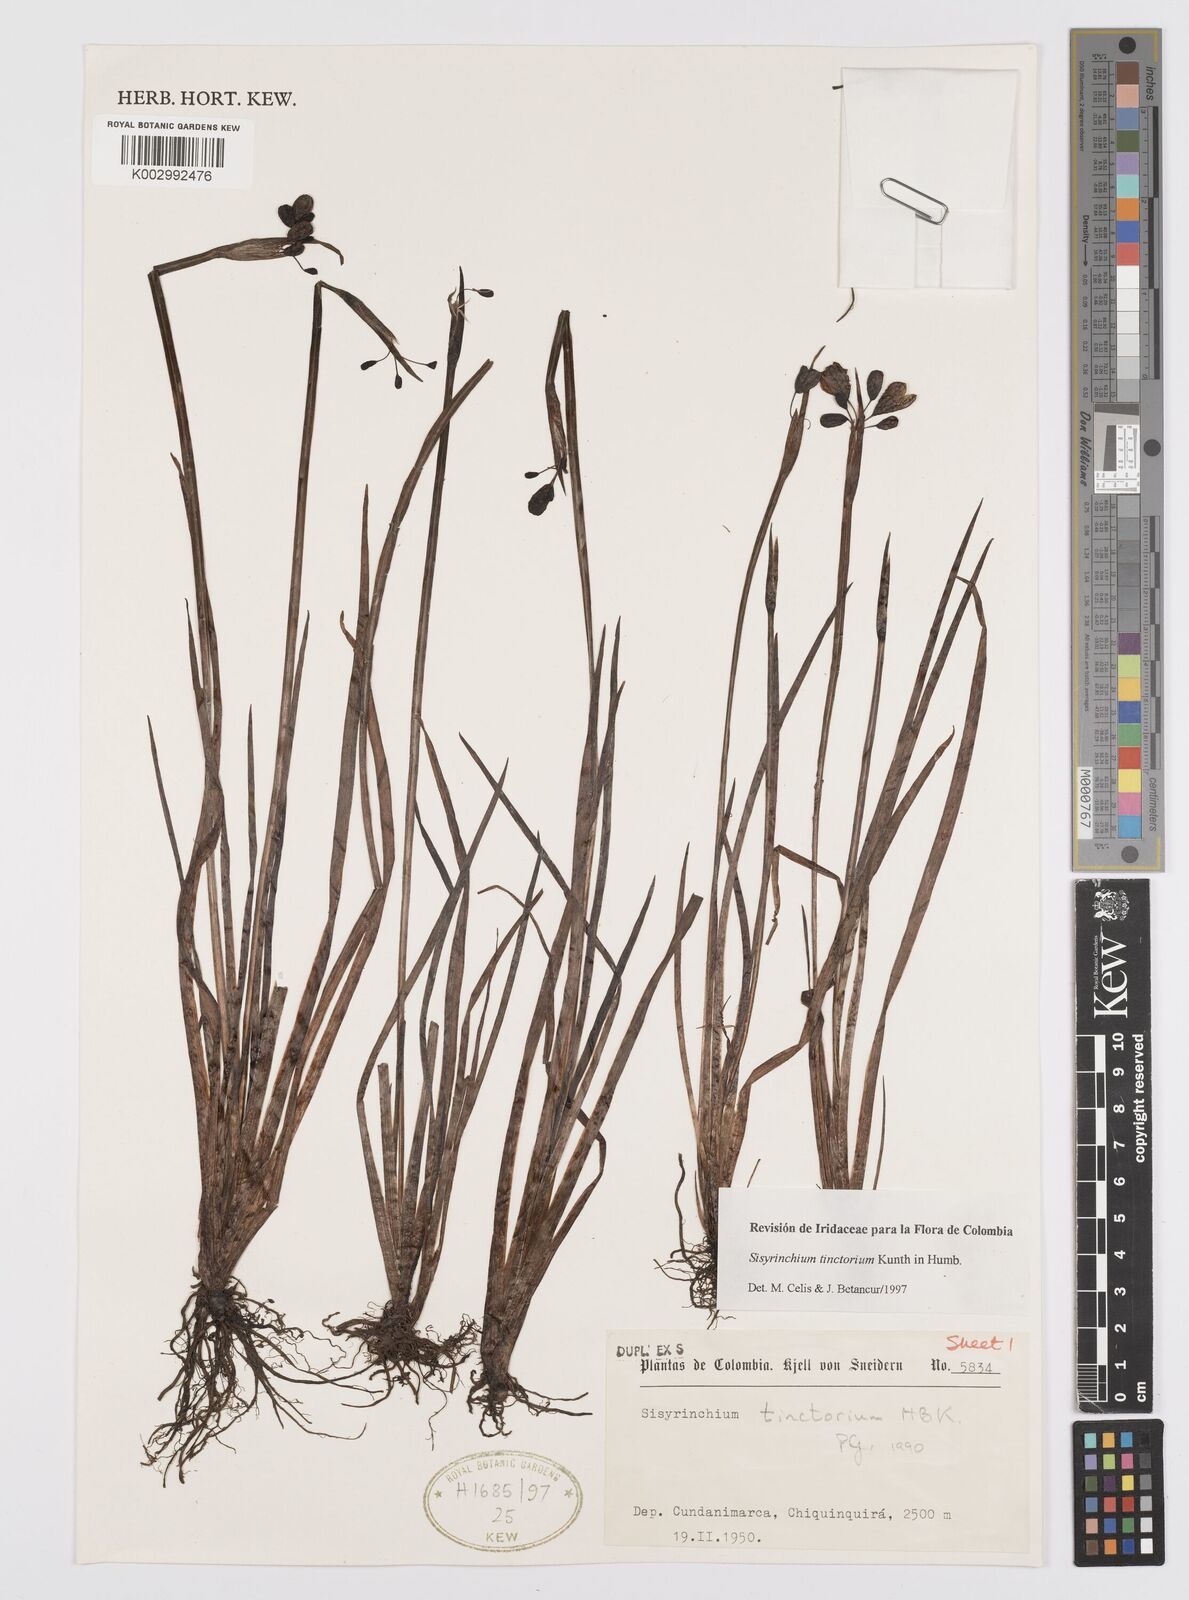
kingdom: Plantae
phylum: Tracheophyta
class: Liliopsida
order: Asparagales
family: Iridaceae
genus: Sisyrinchium
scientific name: Sisyrinchium tinctorium
